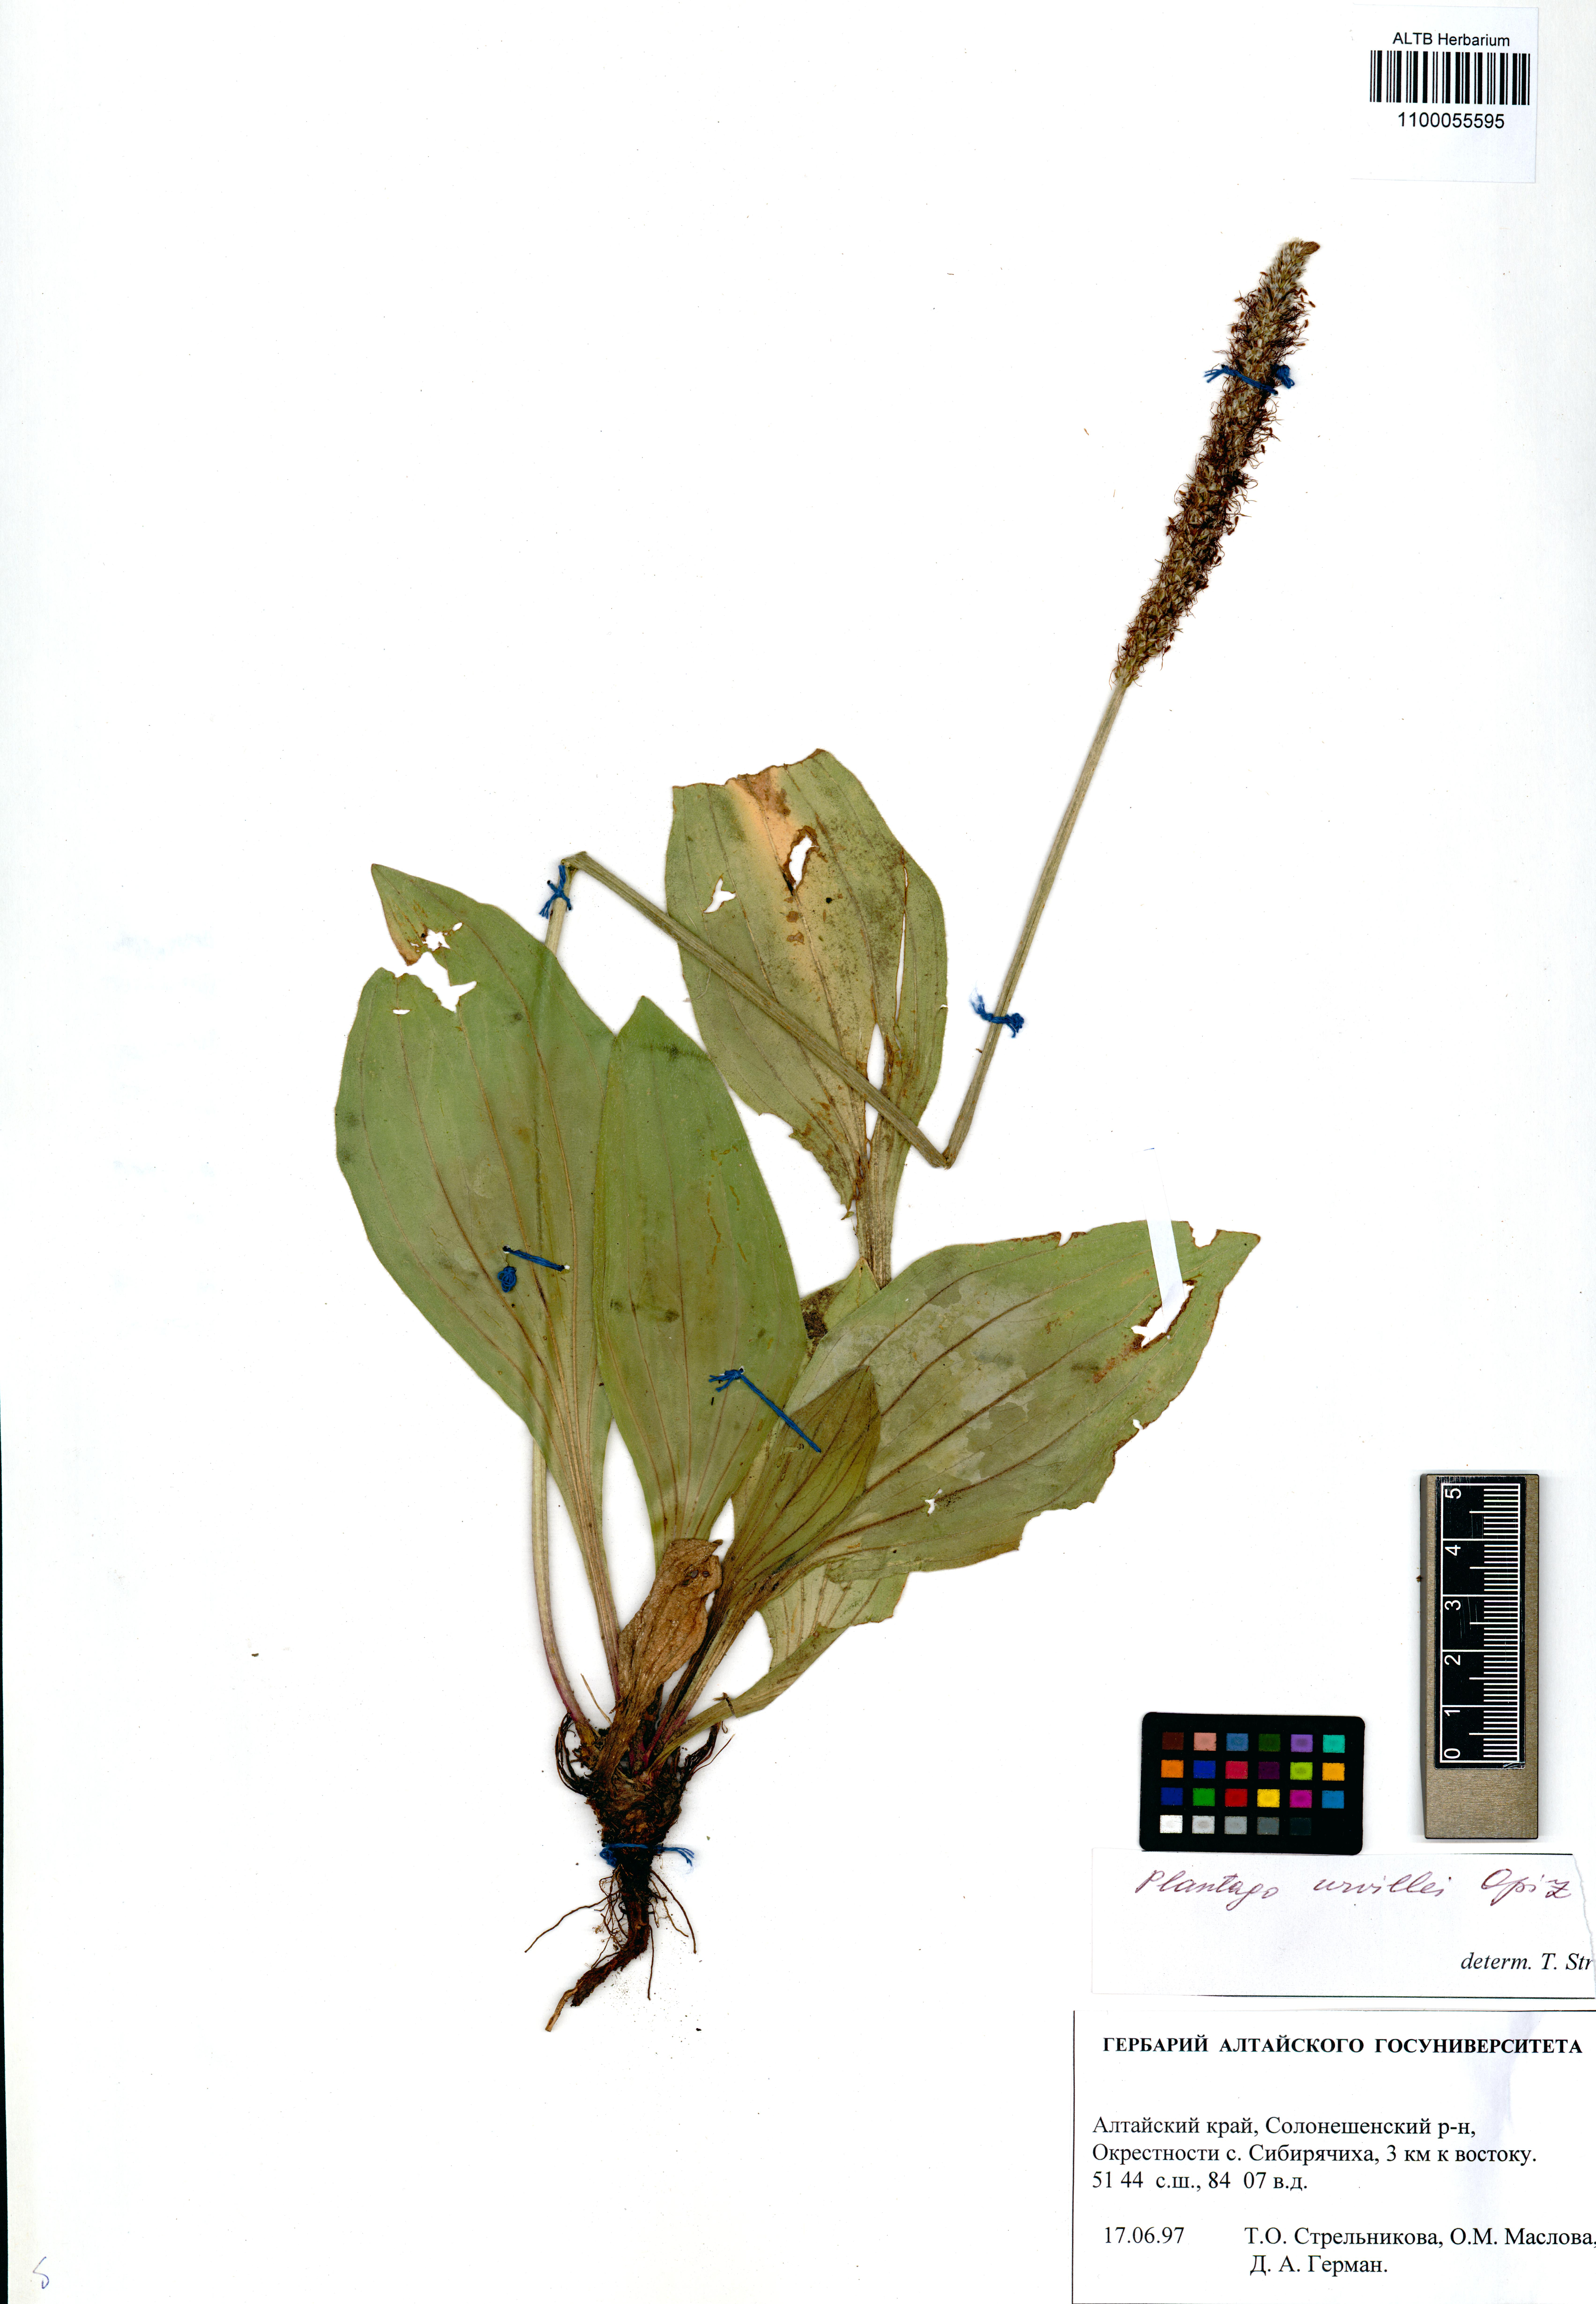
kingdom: Plantae
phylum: Tracheophyta
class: Magnoliopsida
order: Lamiales
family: Plantaginaceae
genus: Plantago
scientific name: Plantago urvillei
